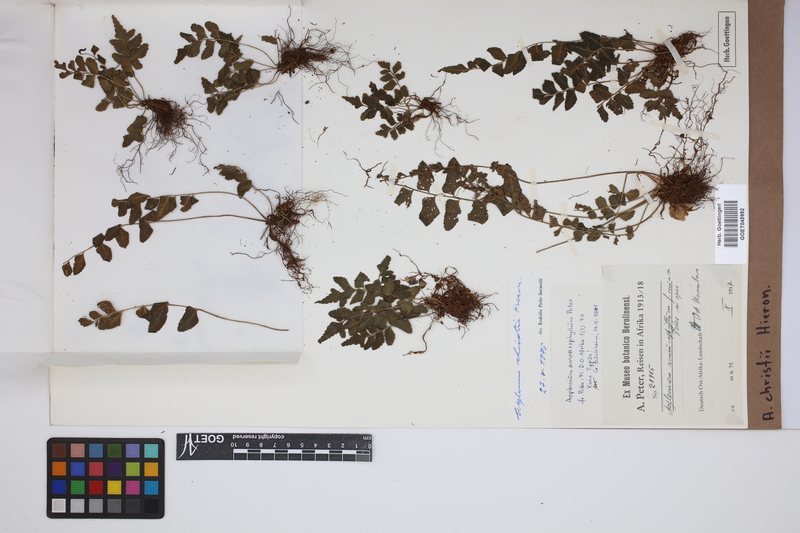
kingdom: Plantae
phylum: Tracheophyta
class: Polypodiopsida
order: Polypodiales
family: Aspleniaceae
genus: Asplenium
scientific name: Asplenium christii
